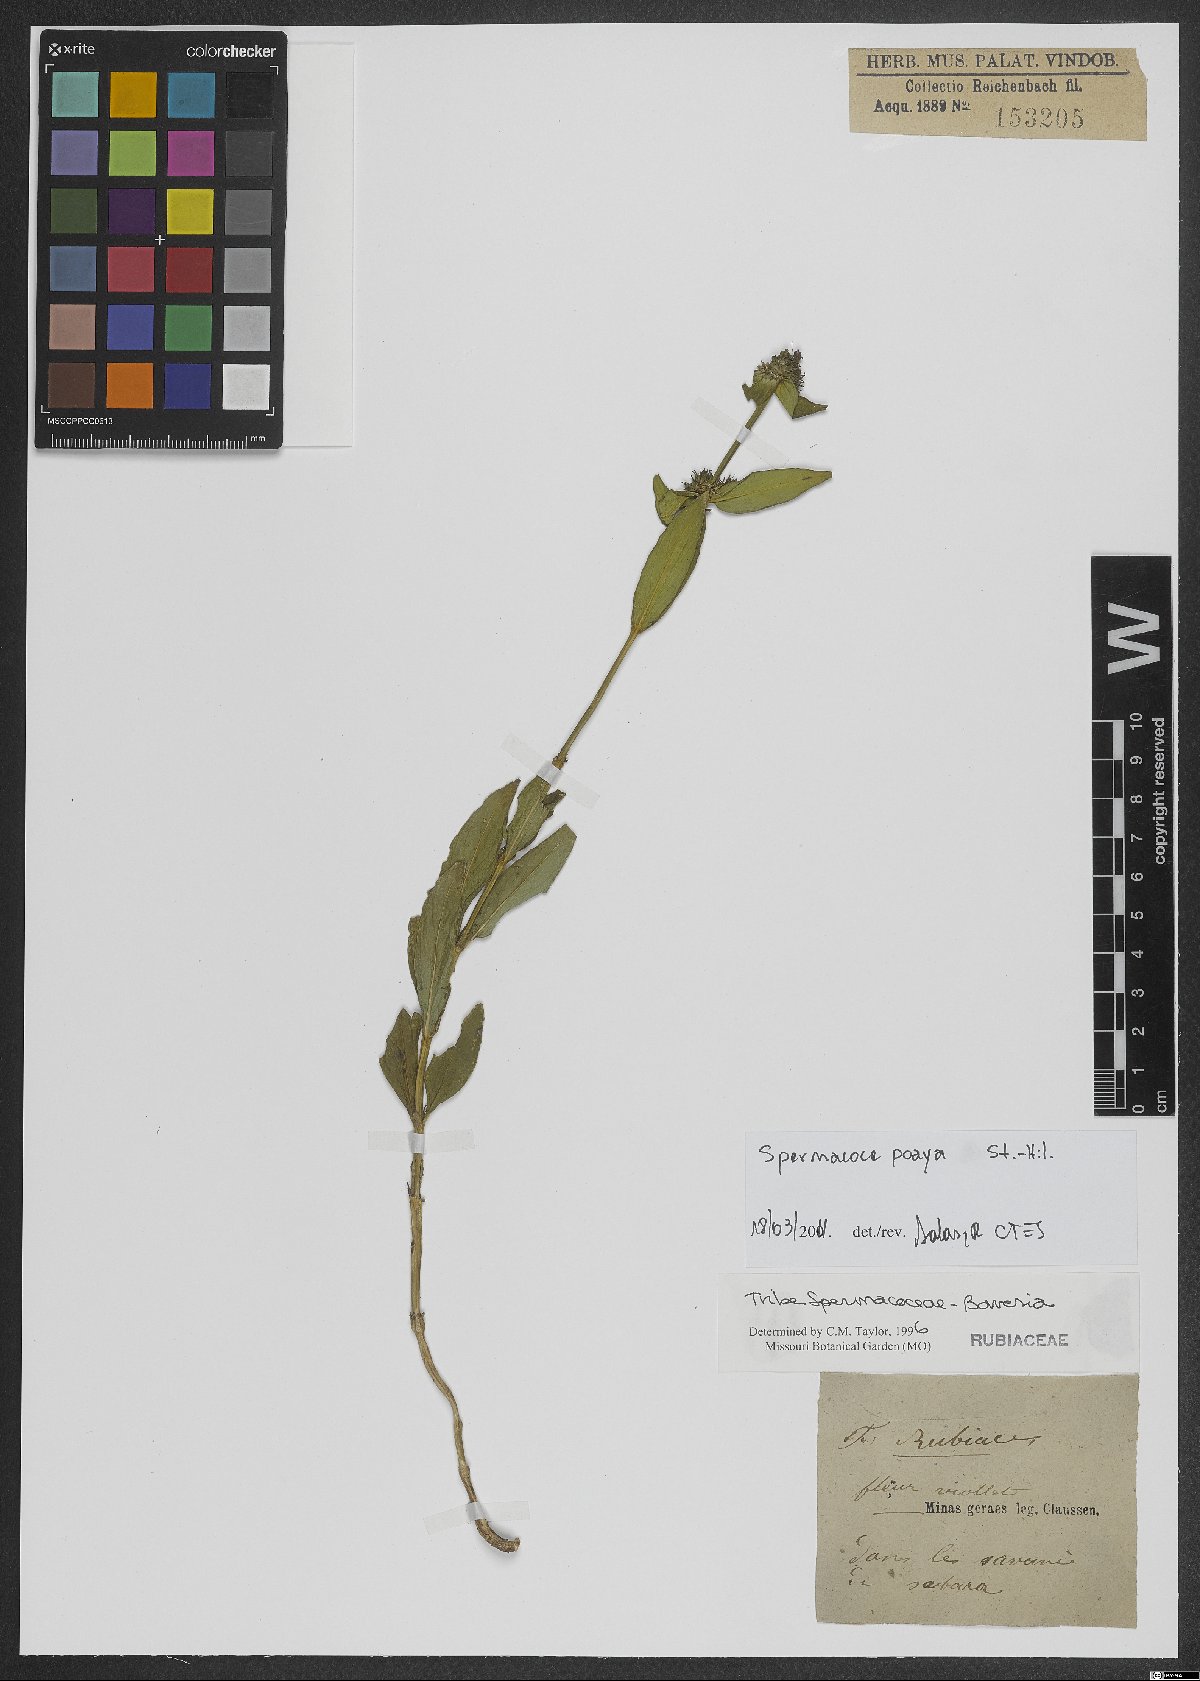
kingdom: Plantae
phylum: Tracheophyta
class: Magnoliopsida
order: Gentianales
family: Rubiaceae
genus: Spermacoce
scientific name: Spermacoce poaya
